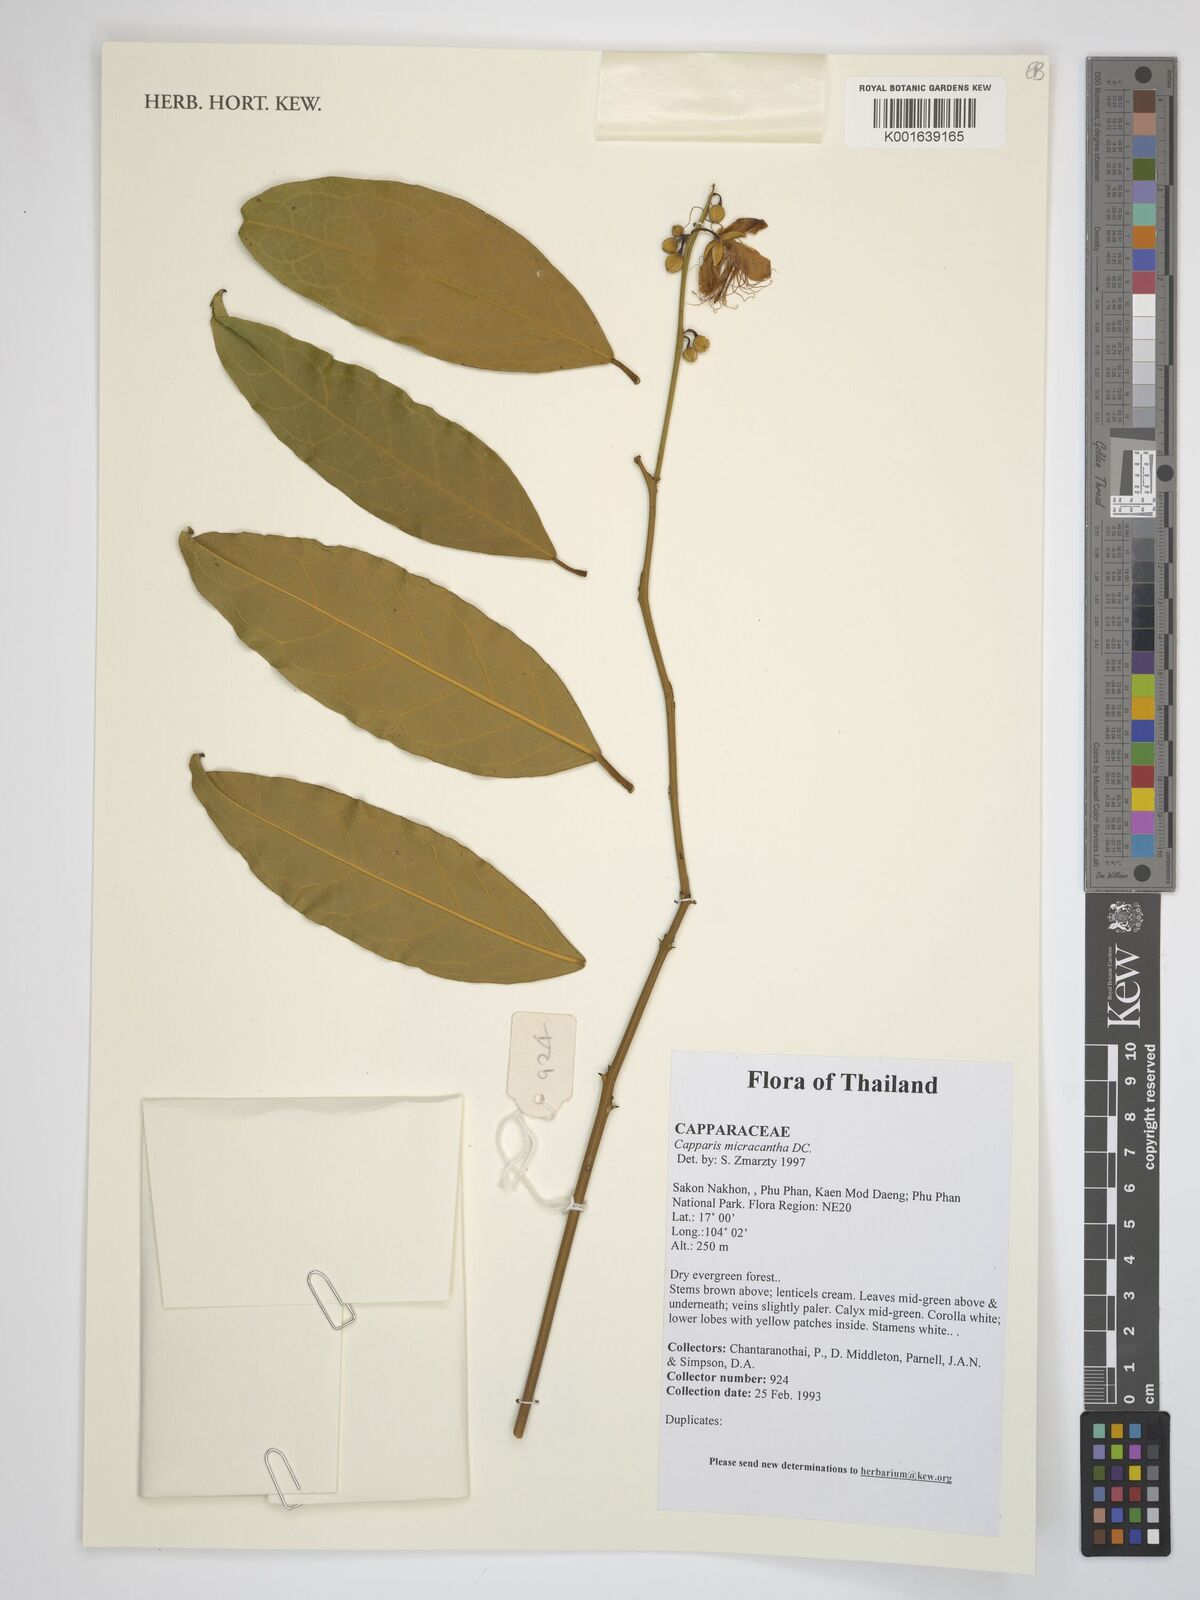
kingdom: Plantae
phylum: Tracheophyta
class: Magnoliopsida
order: Brassicales
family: Capparaceae
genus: Capparis
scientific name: Capparis micracantha
